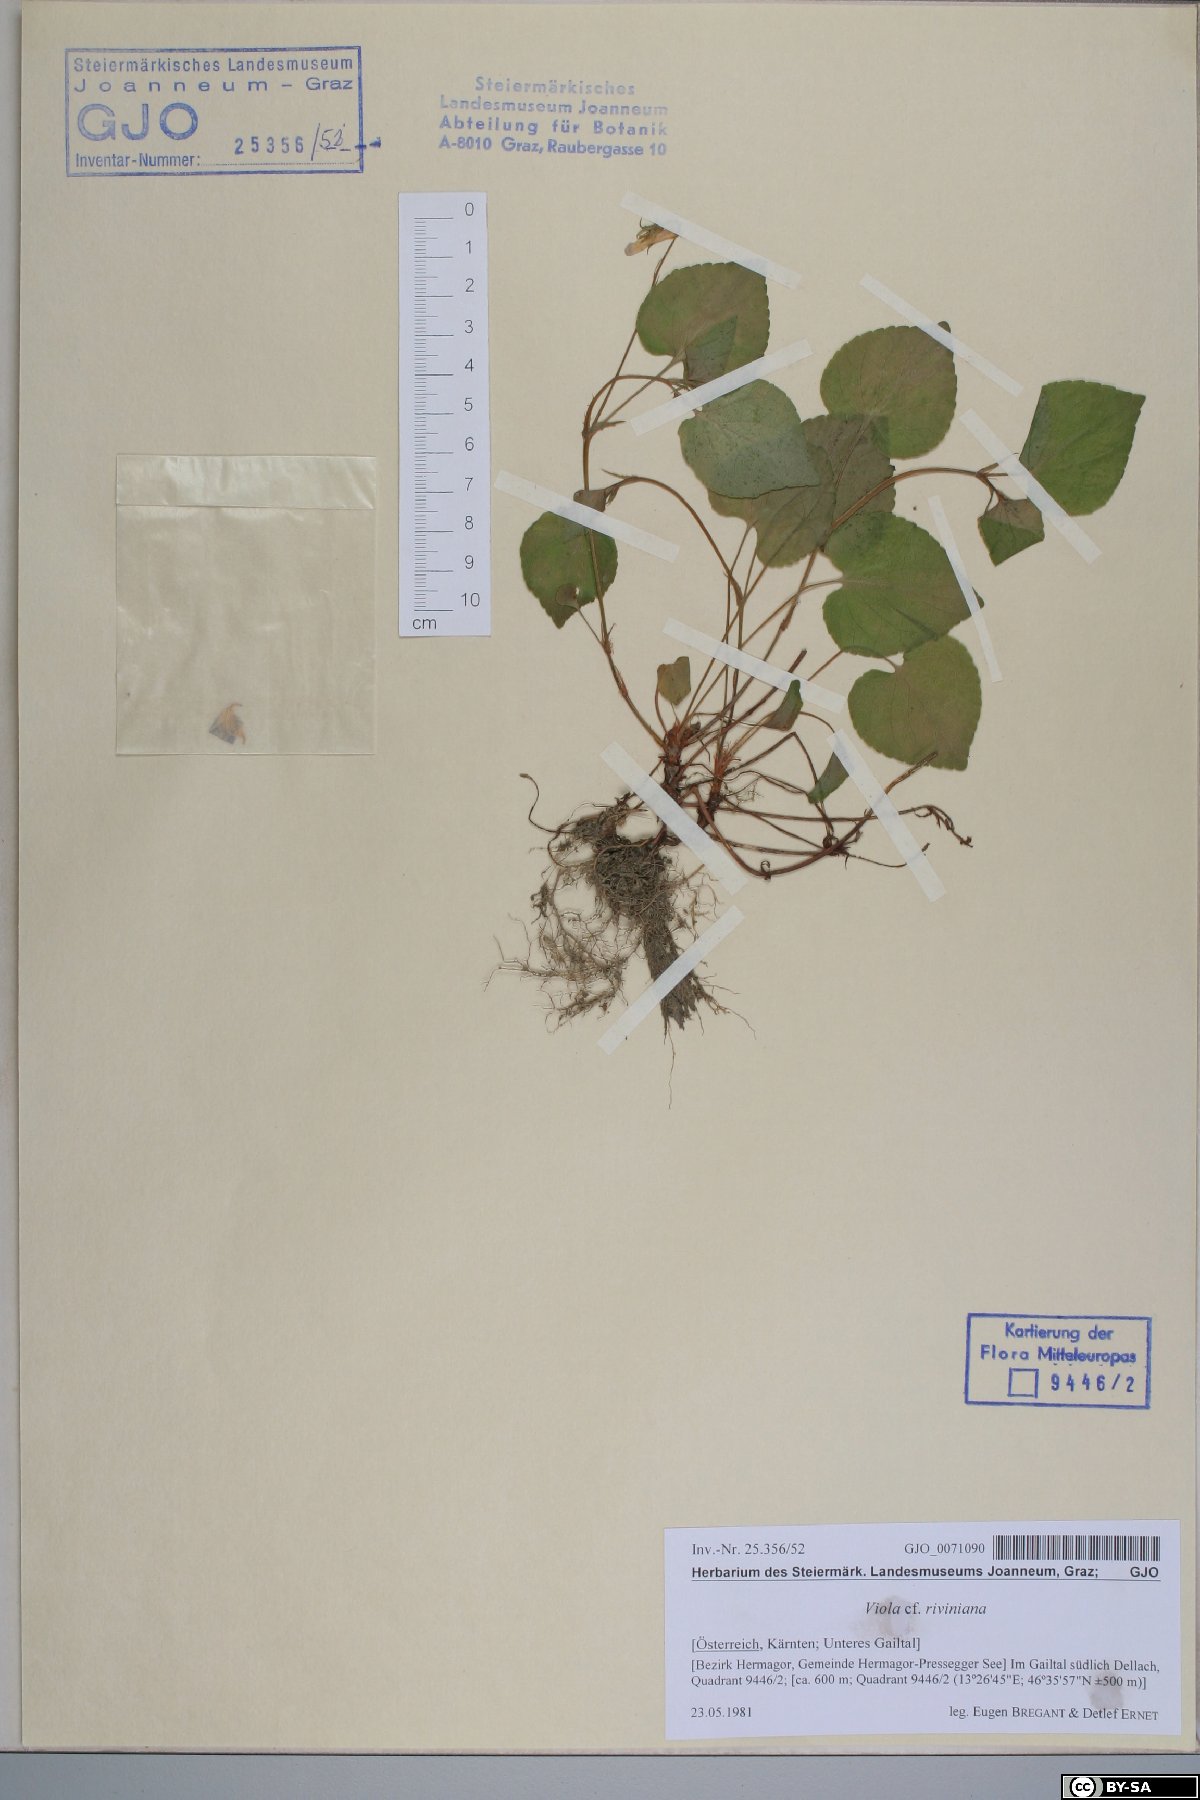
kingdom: Plantae
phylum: Tracheophyta
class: Magnoliopsida
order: Malpighiales
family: Violaceae
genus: Viola
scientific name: Viola riviniana
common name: Common dog-violet
